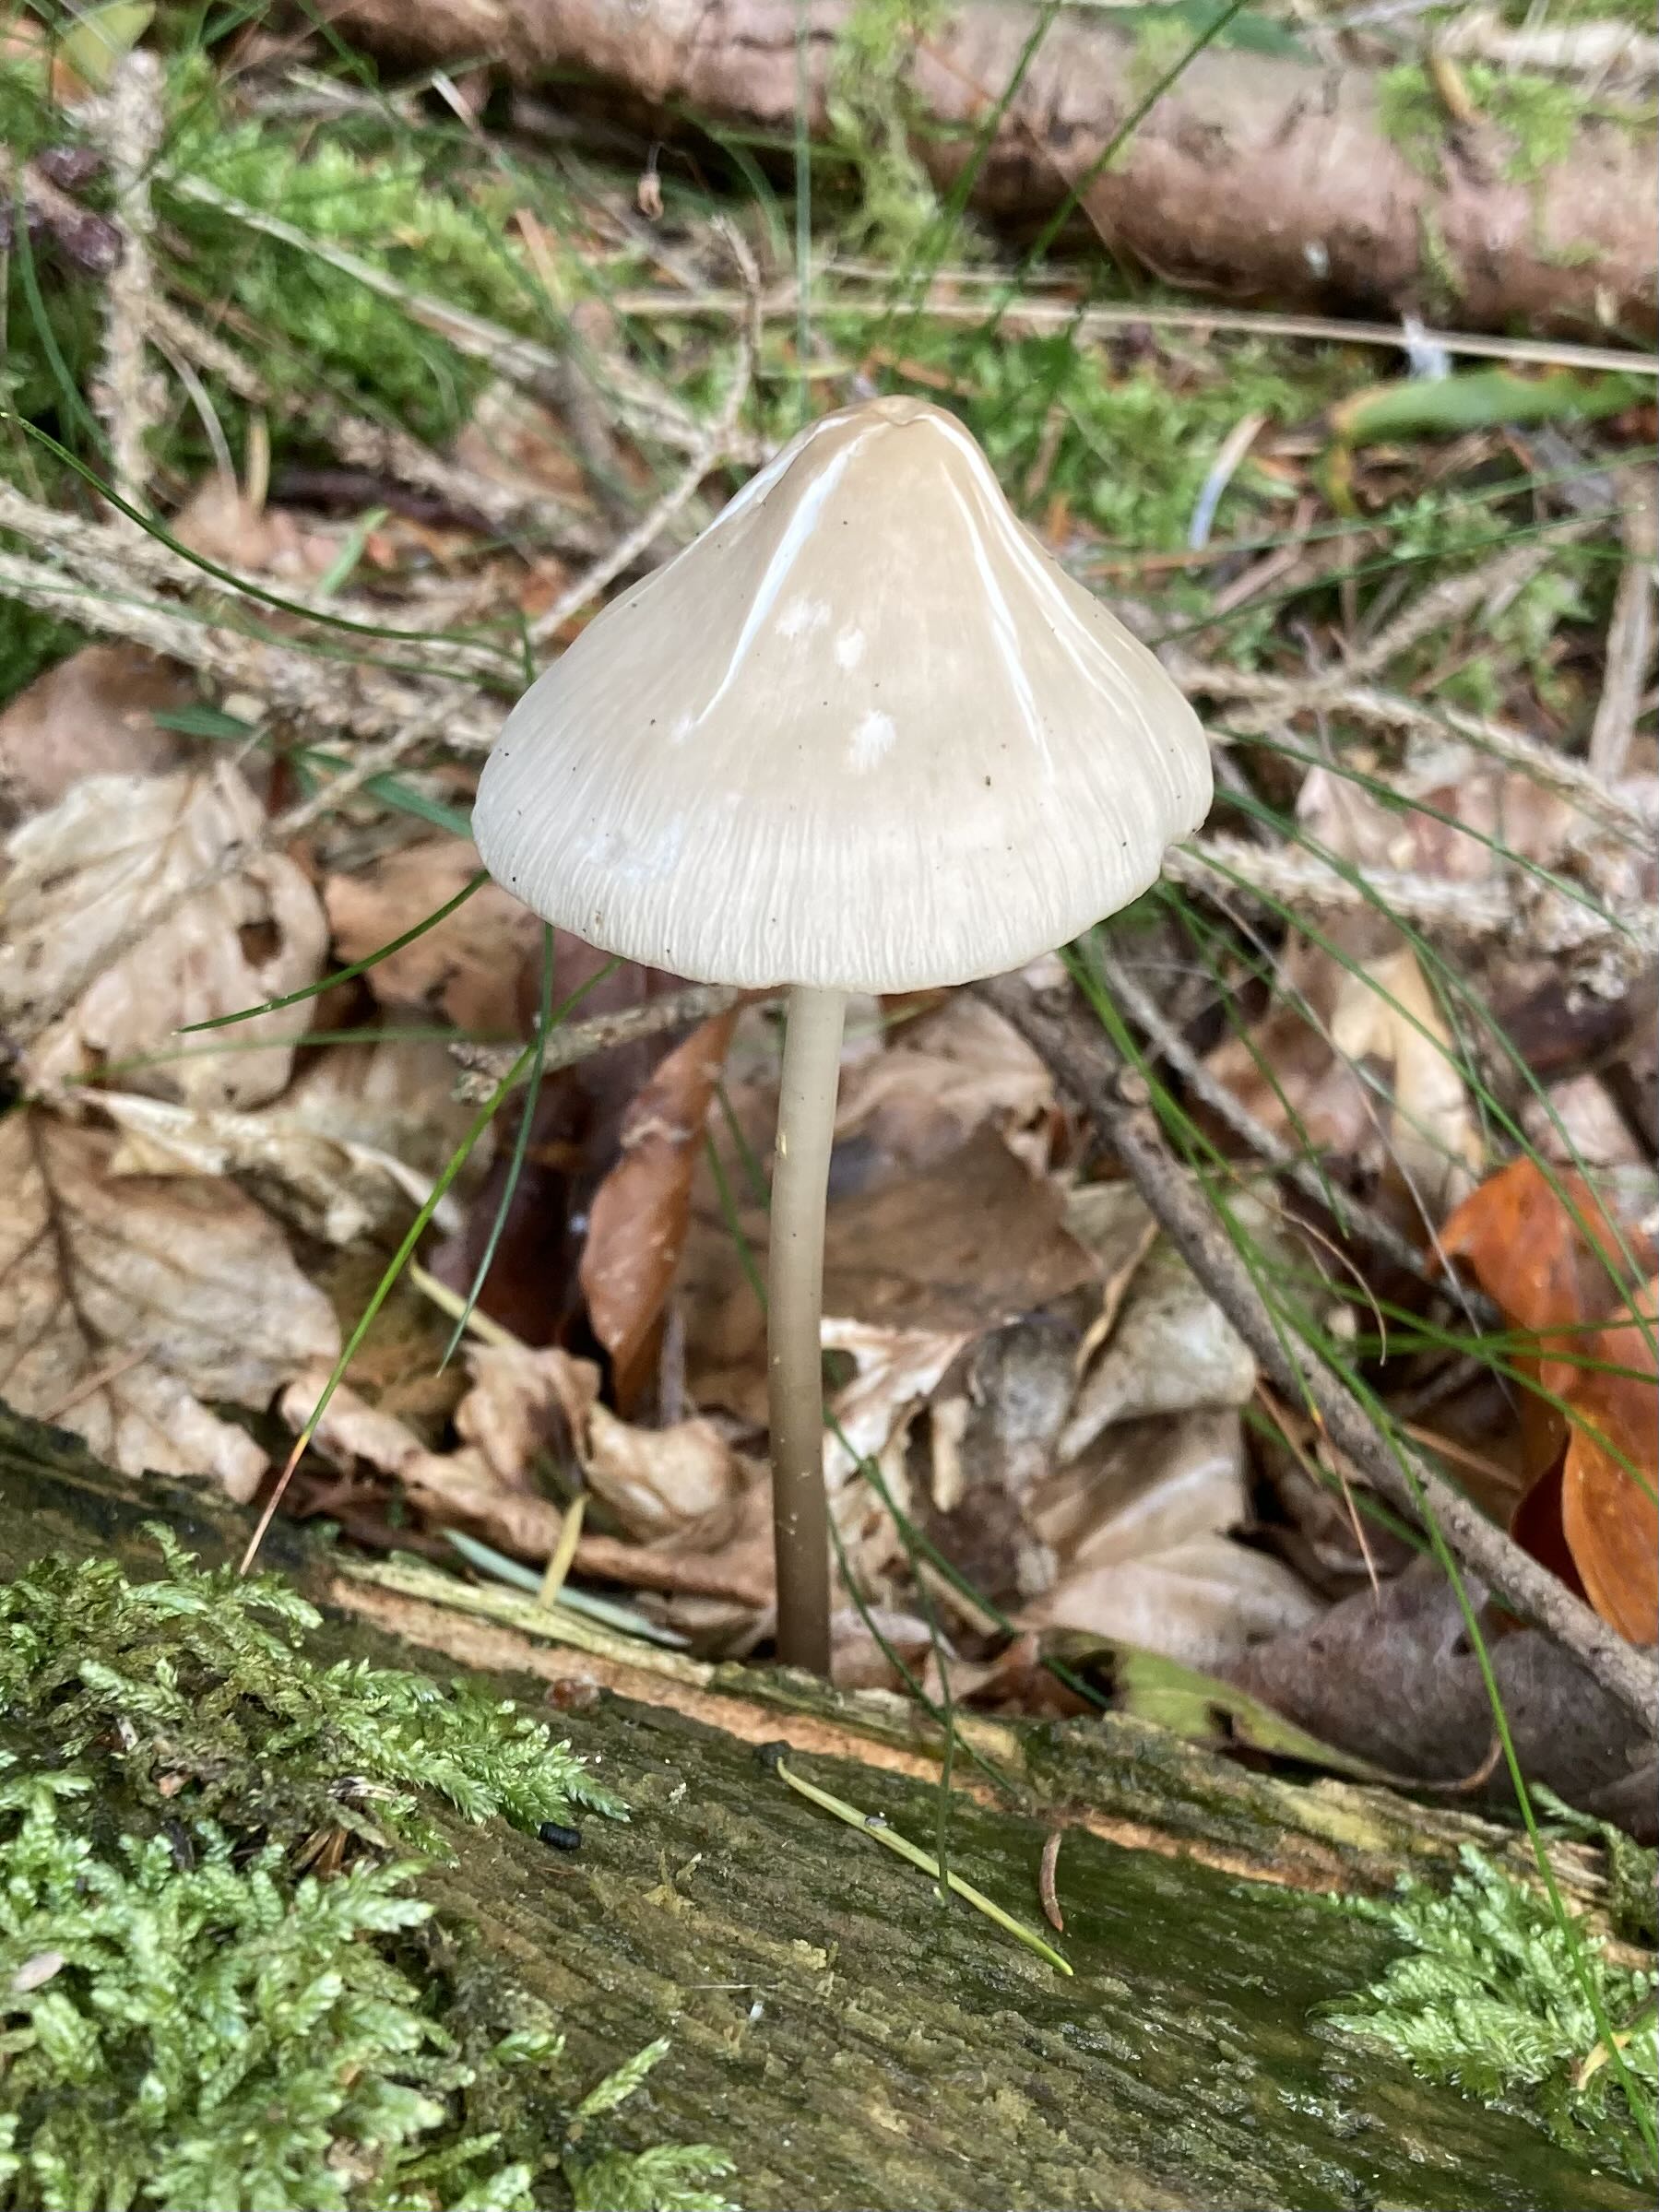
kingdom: Fungi
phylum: Basidiomycota
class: Agaricomycetes
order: Agaricales
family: Mycenaceae
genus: Mycena
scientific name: Mycena galericulata
